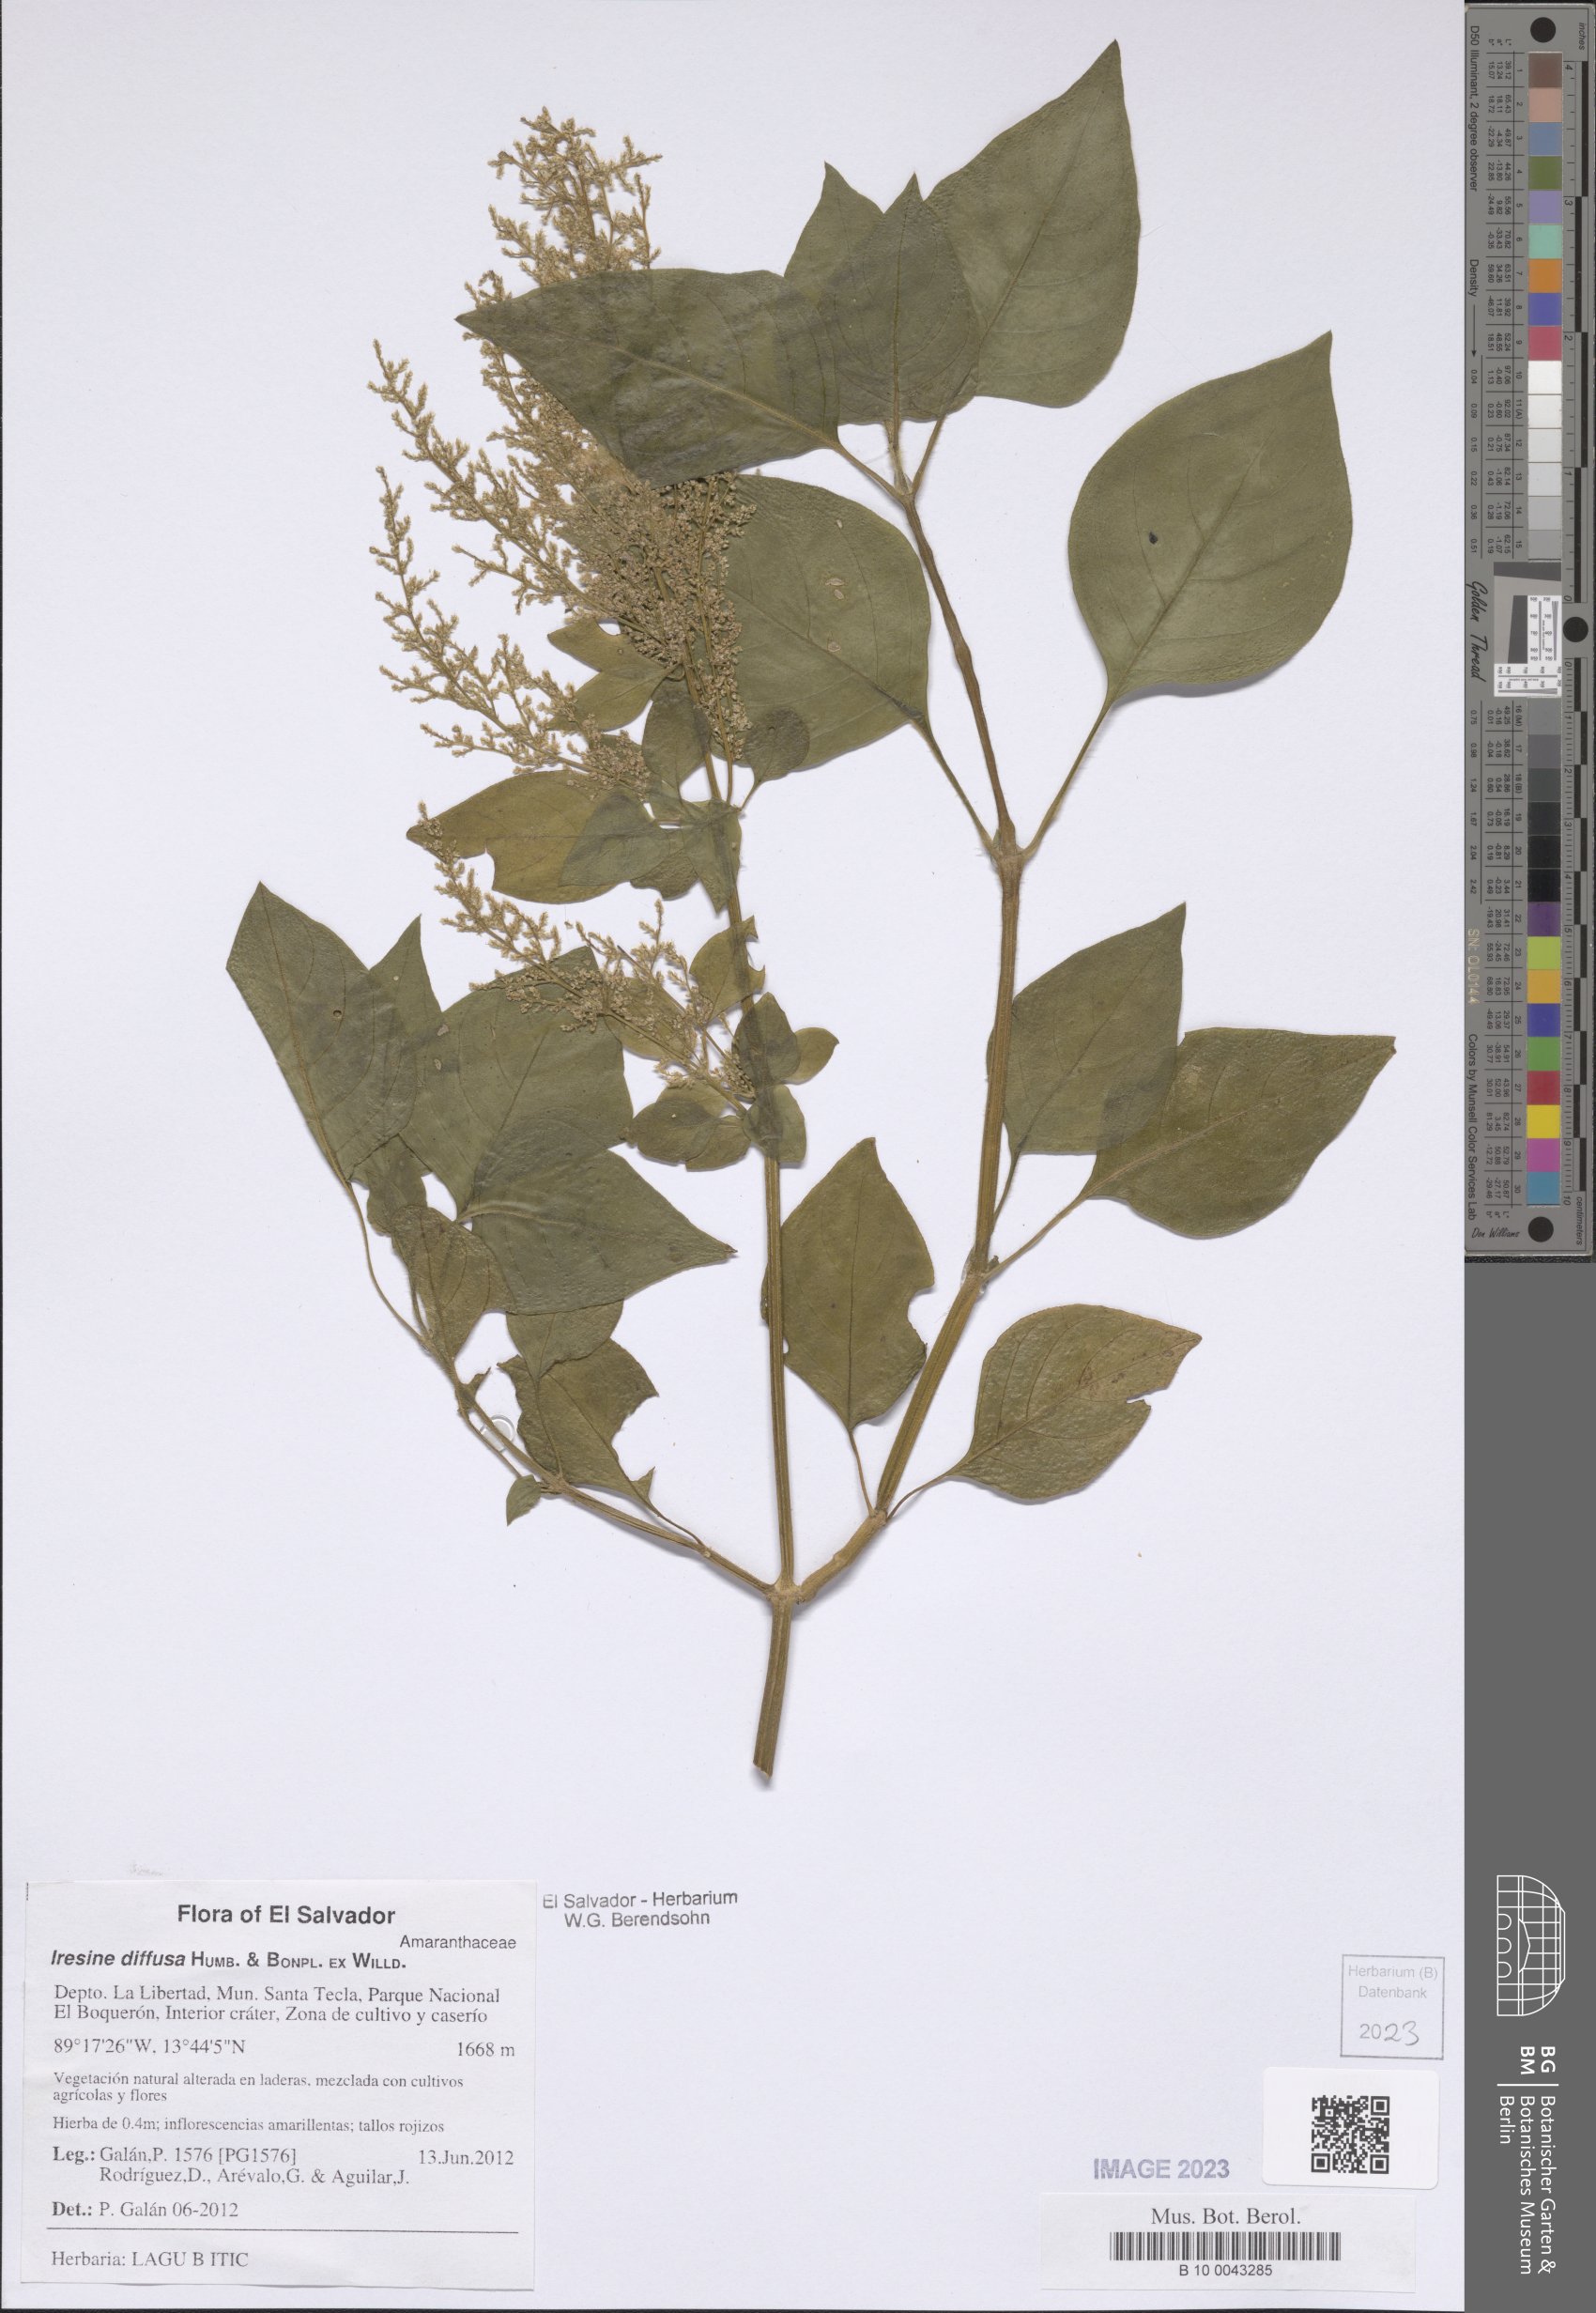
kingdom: Plantae
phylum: Tracheophyta
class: Magnoliopsida
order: Caryophyllales
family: Amaranthaceae
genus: Iresine
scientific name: Iresine diffusa
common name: Juba's-bush
